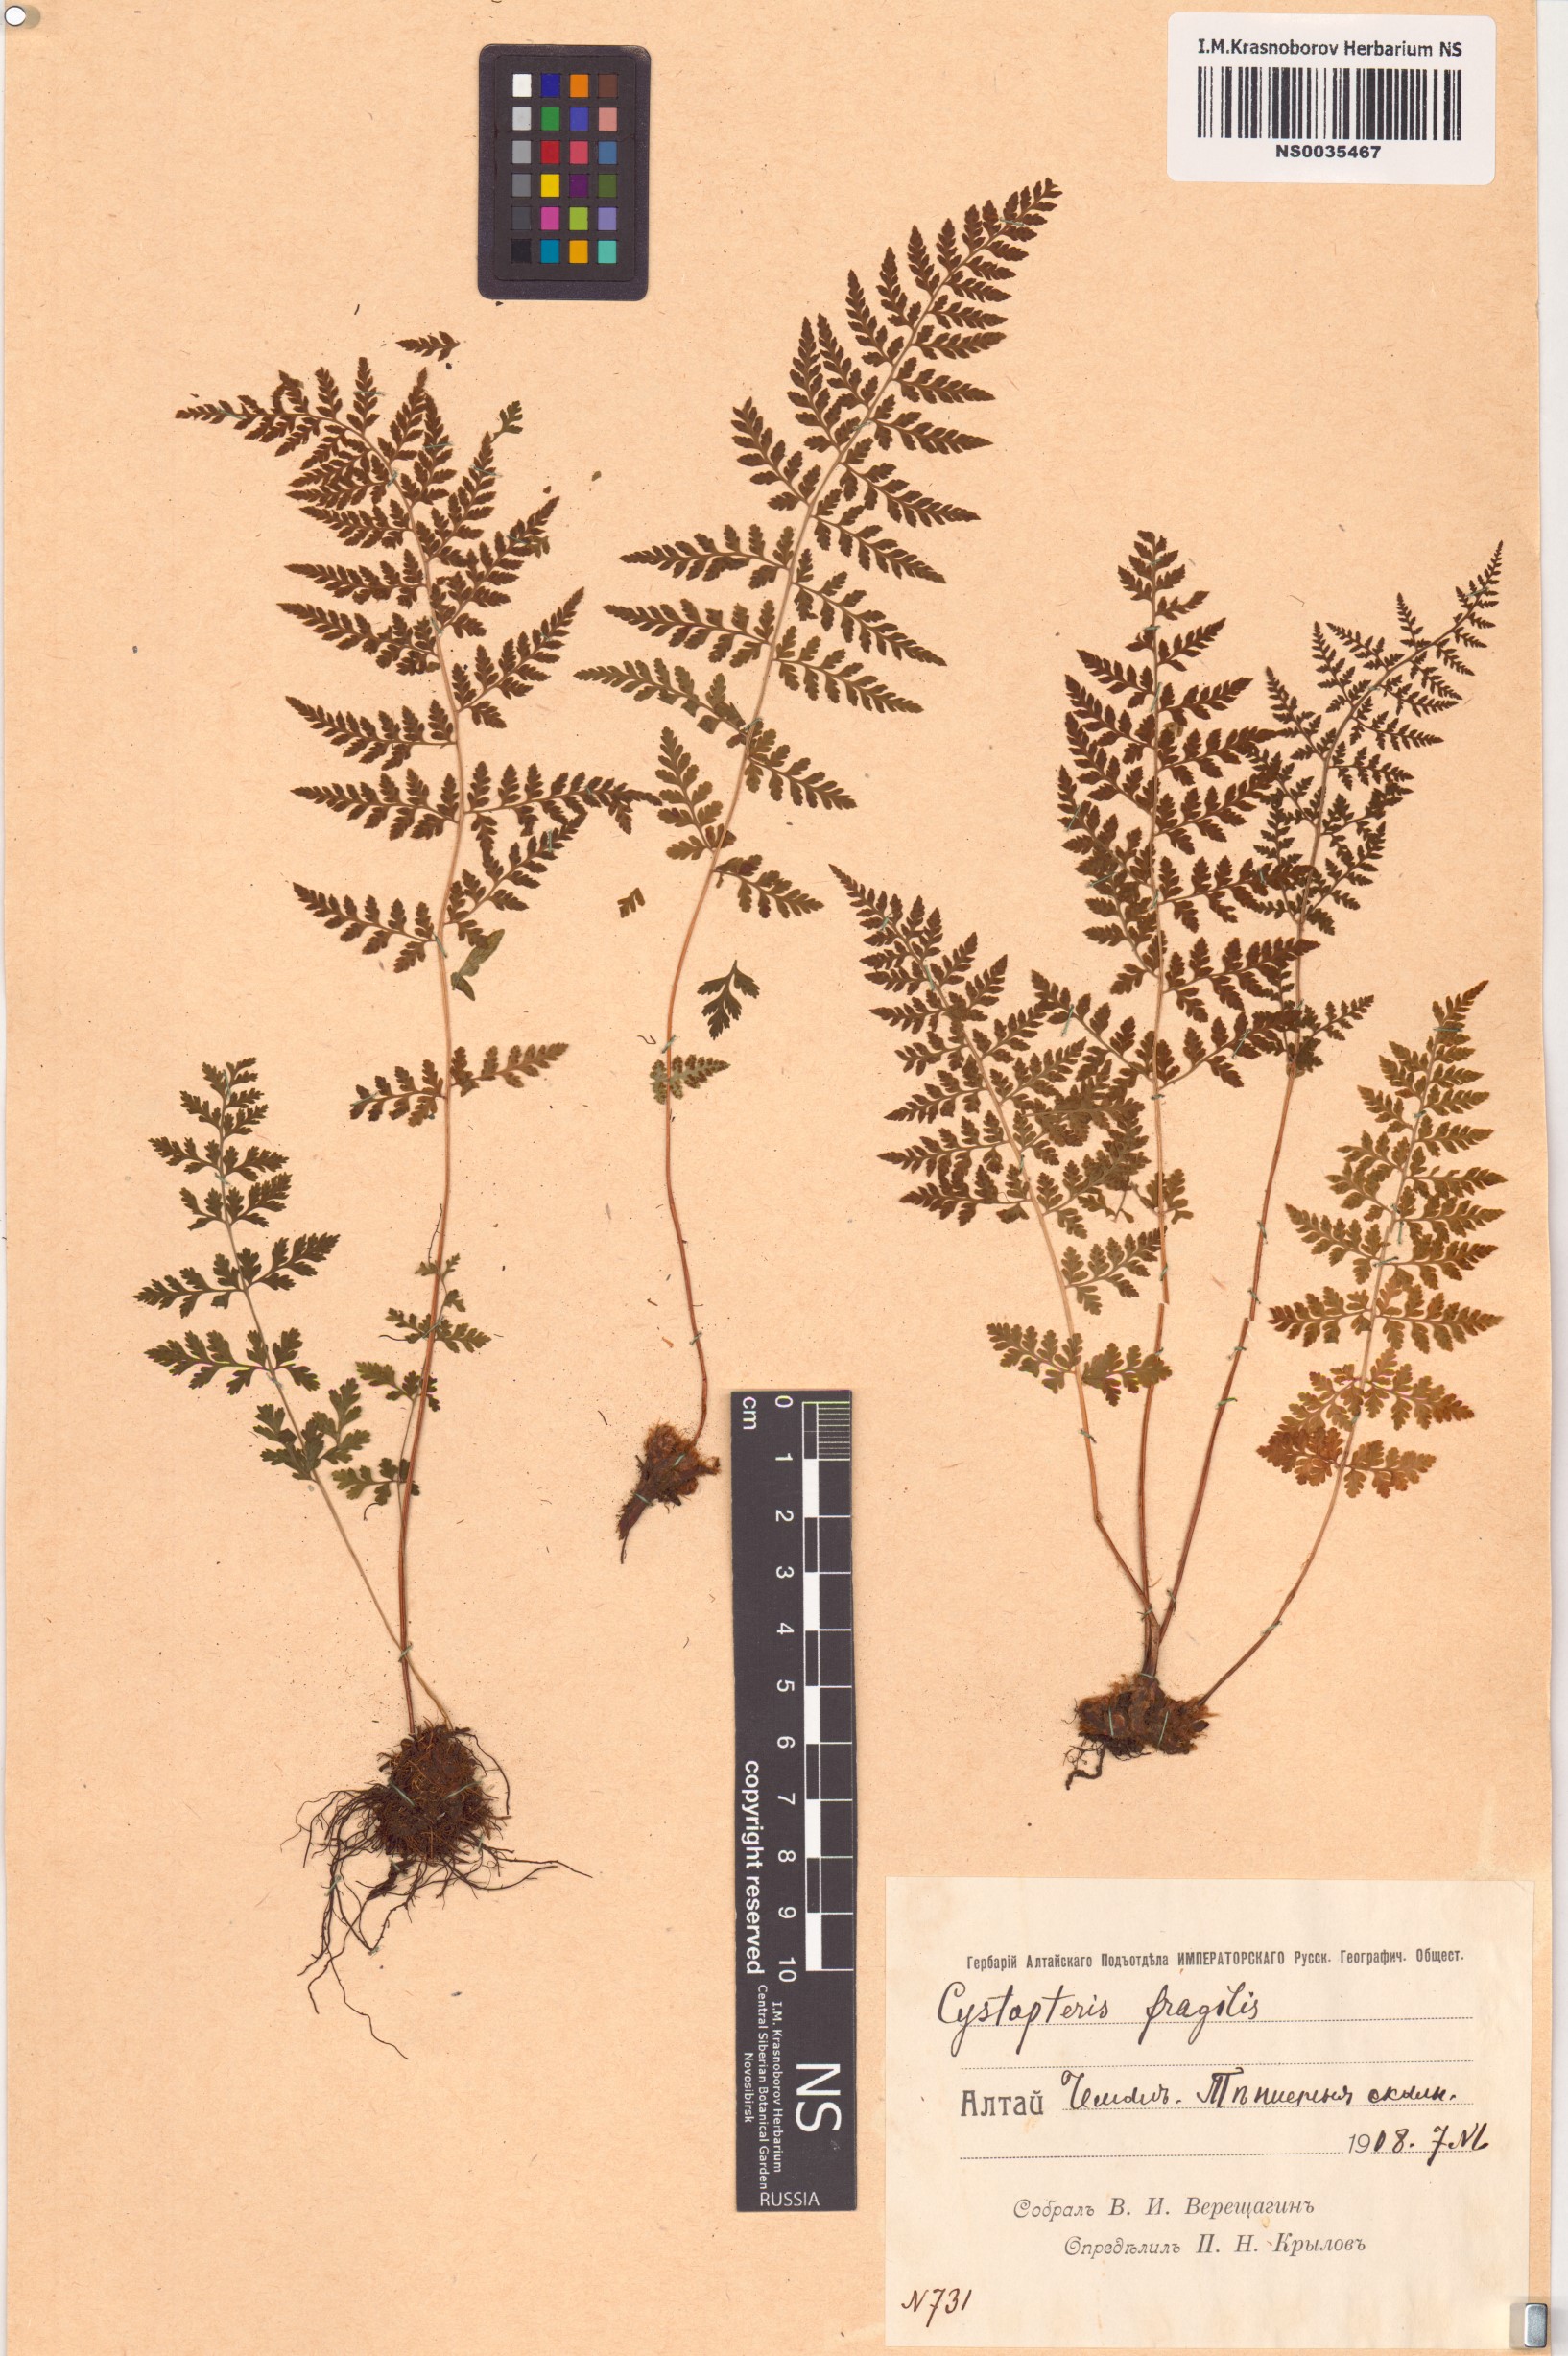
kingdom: Plantae
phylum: Tracheophyta
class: Polypodiopsida
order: Polypodiales
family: Cystopteridaceae
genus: Cystopteris
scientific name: Cystopteris fragilis
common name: Brittle bladder fern
